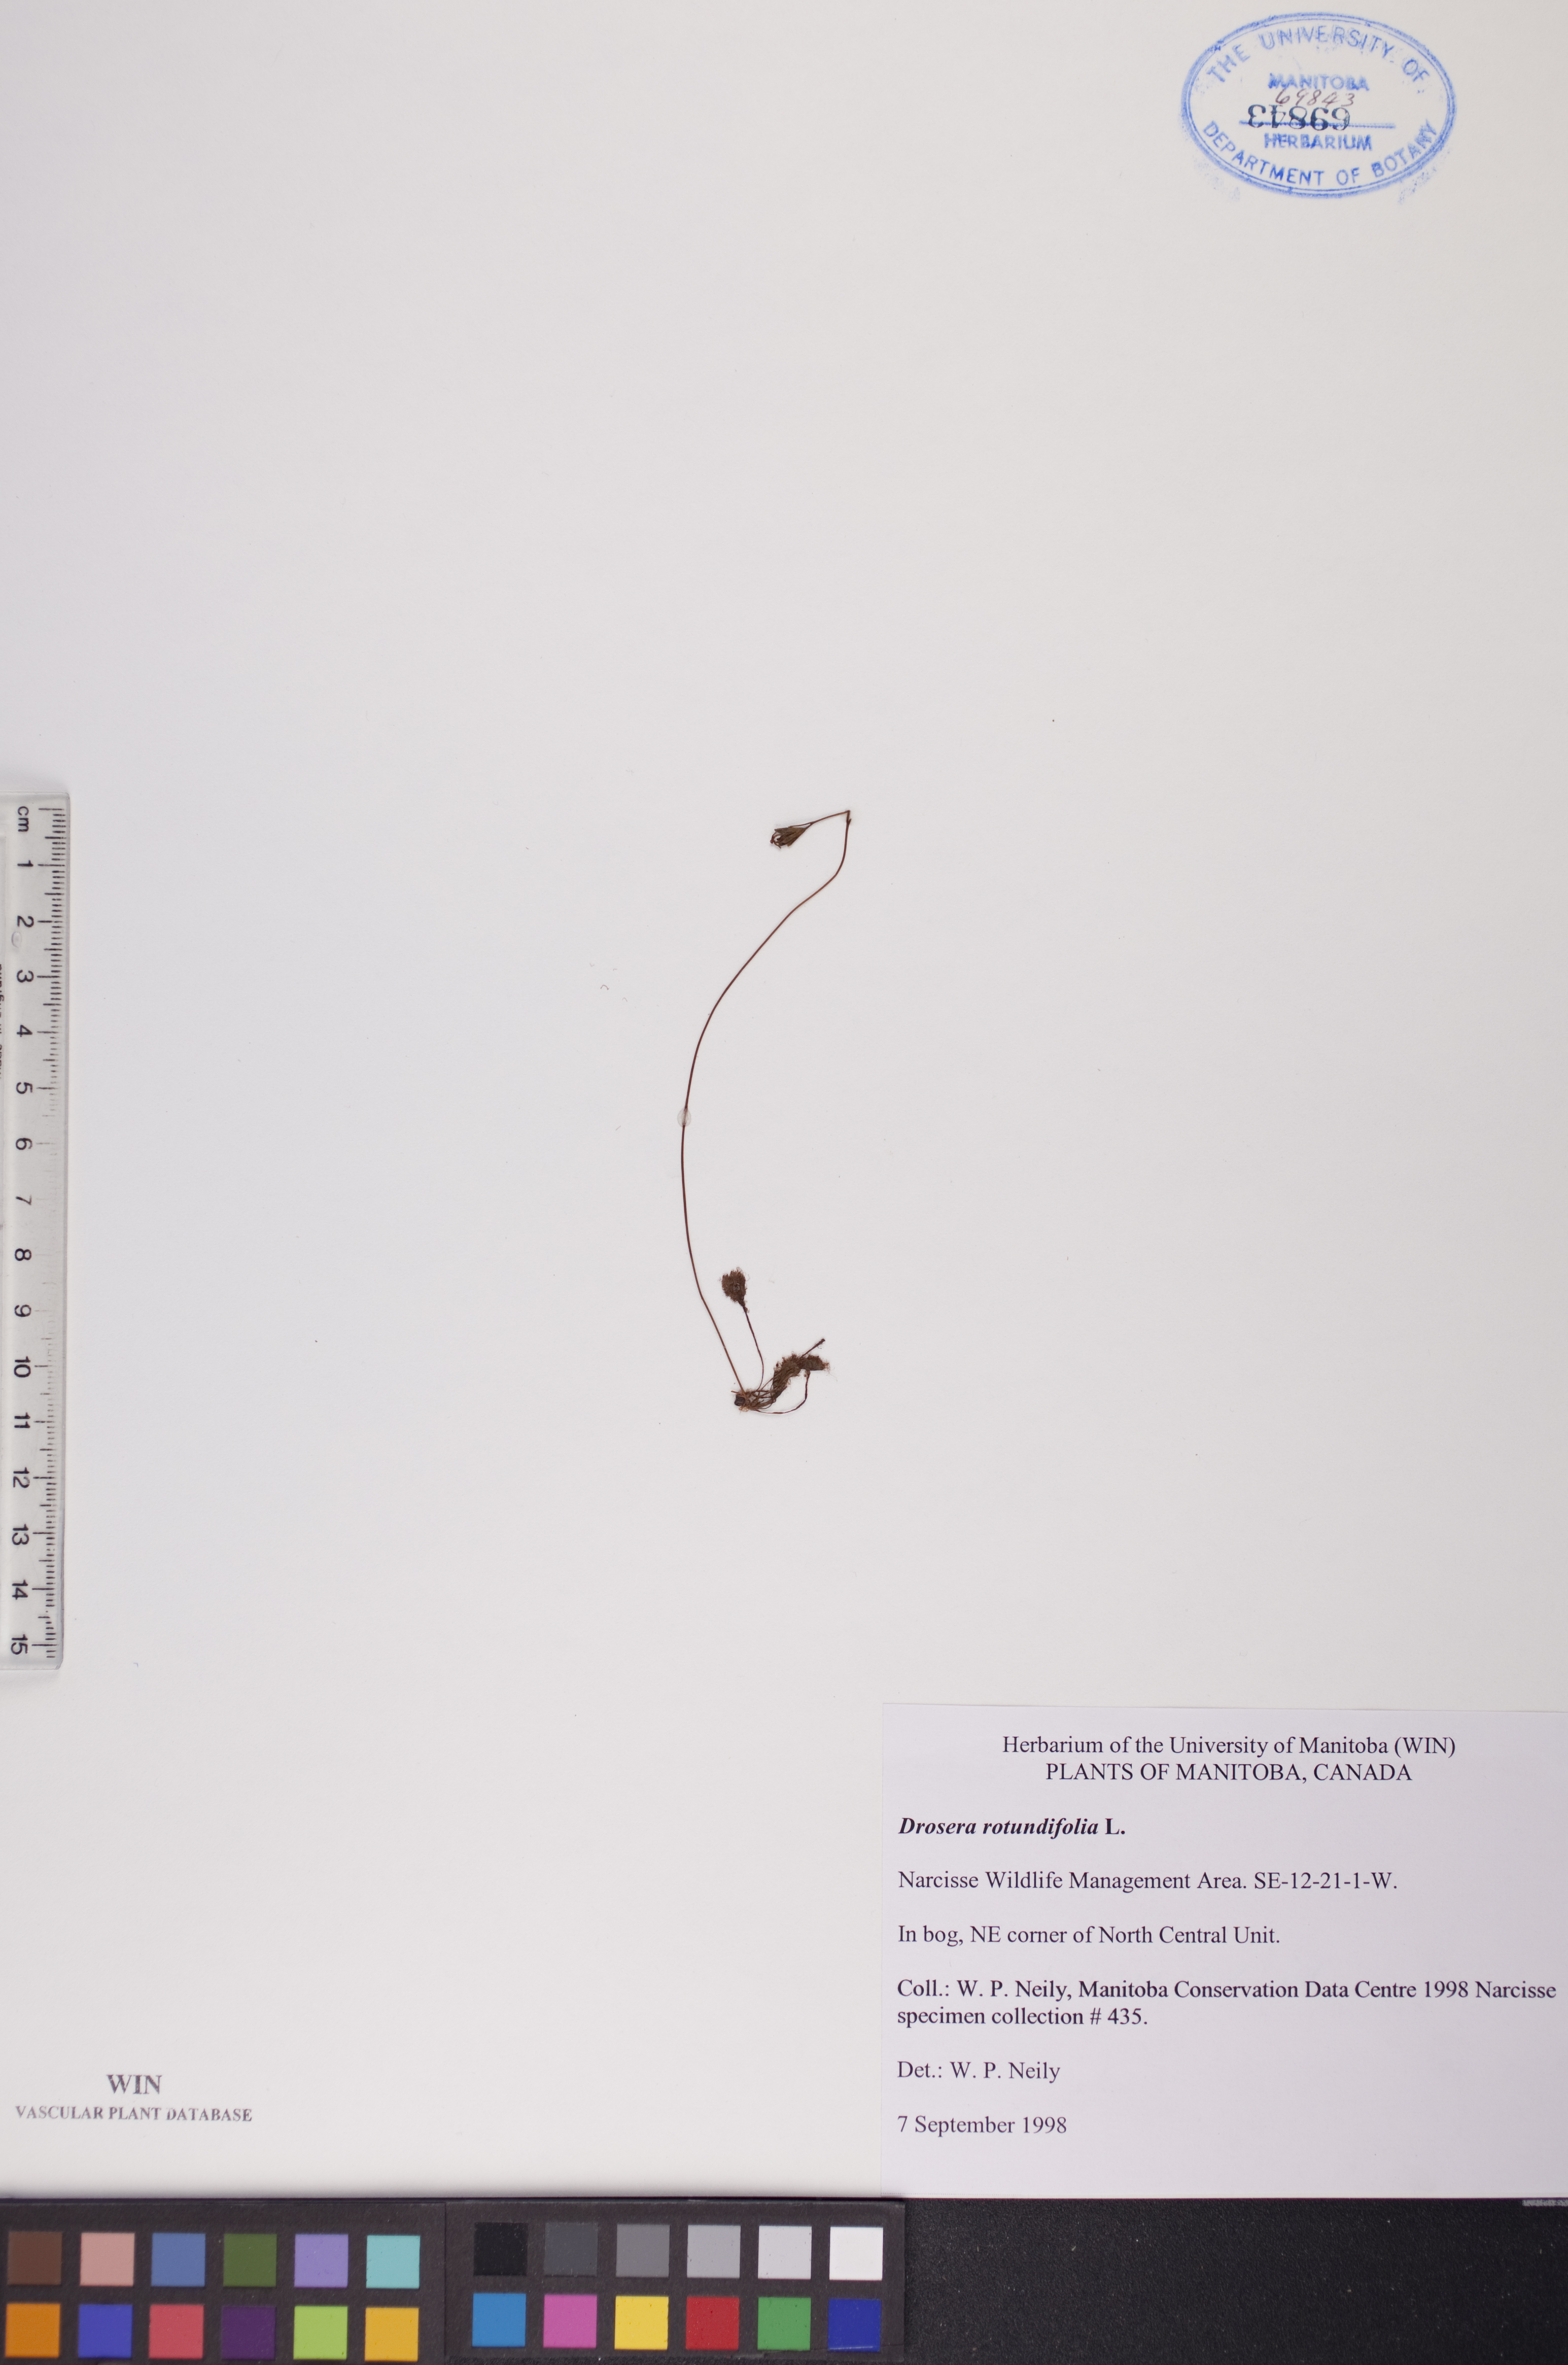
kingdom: Plantae
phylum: Tracheophyta
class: Magnoliopsida
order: Caryophyllales
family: Droseraceae
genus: Drosera
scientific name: Drosera rotundifolia
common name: Round-leaved sundew
